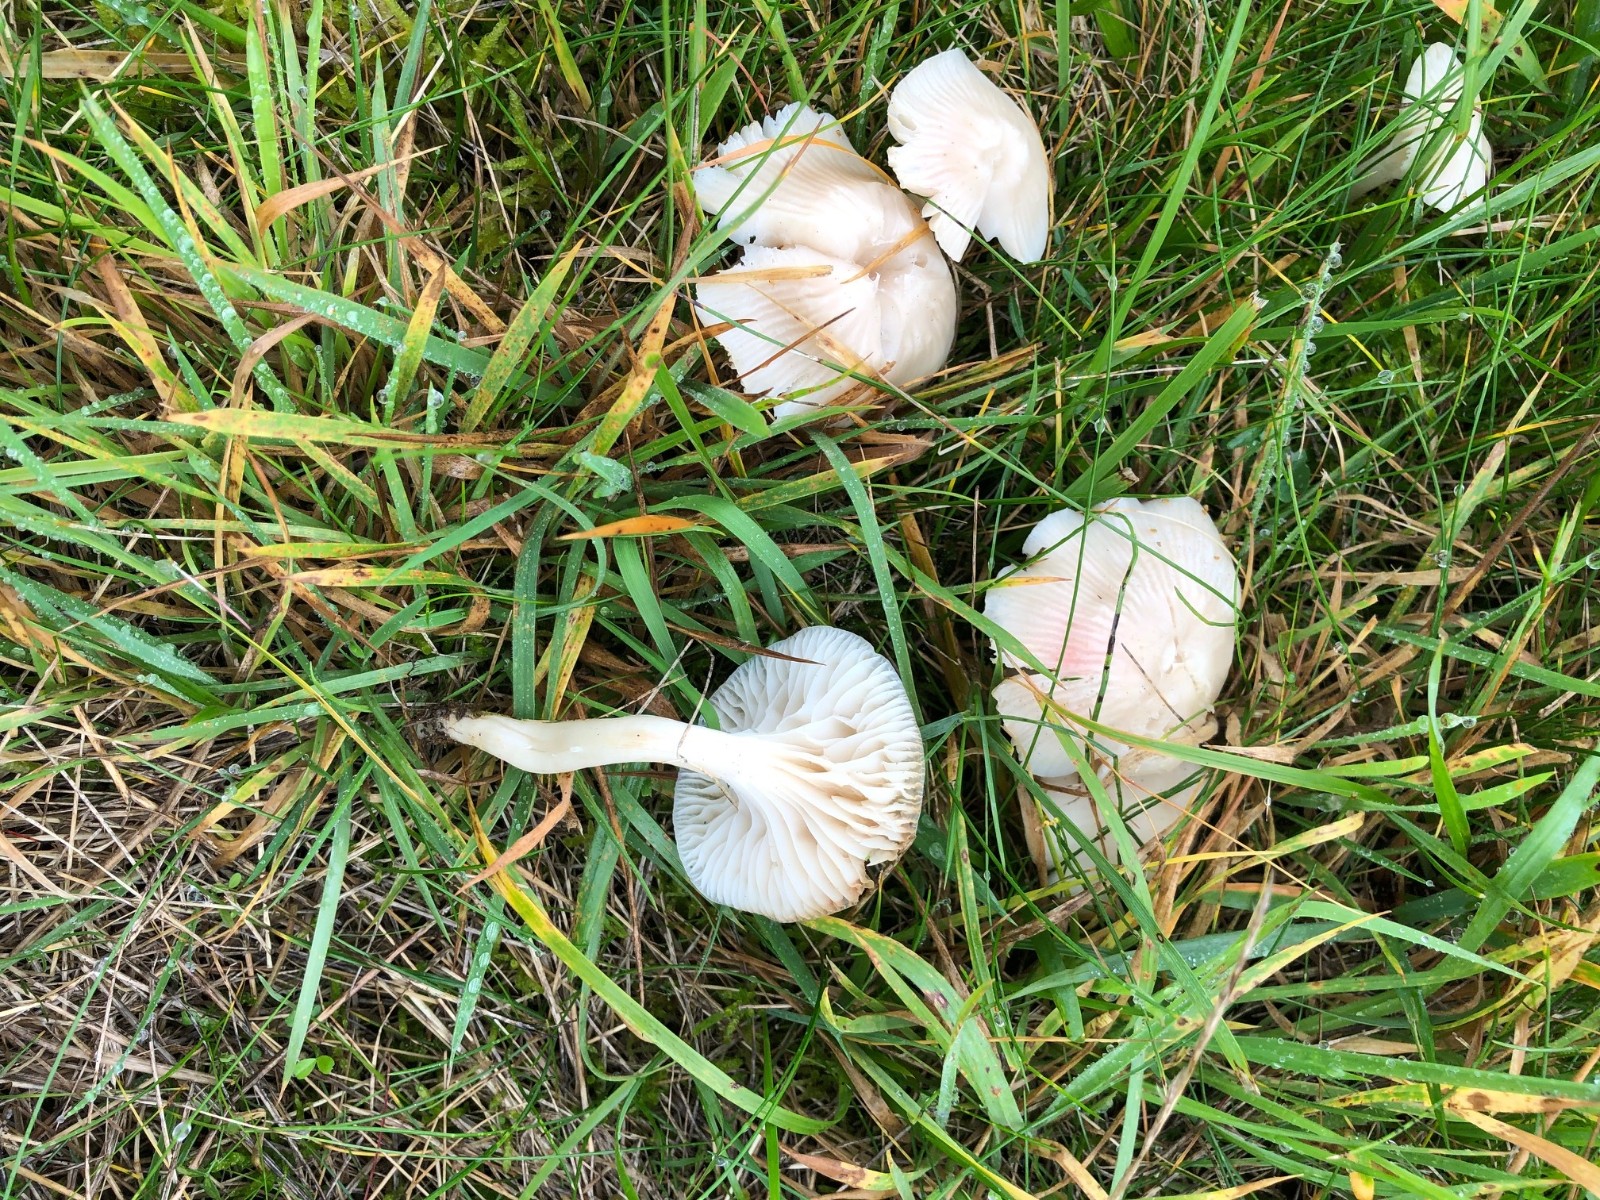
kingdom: Fungi
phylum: Basidiomycota
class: Agaricomycetes
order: Agaricales
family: Hygrophoraceae
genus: Cuphophyllus
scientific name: Cuphophyllus virgineus
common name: snehvid vokshat
